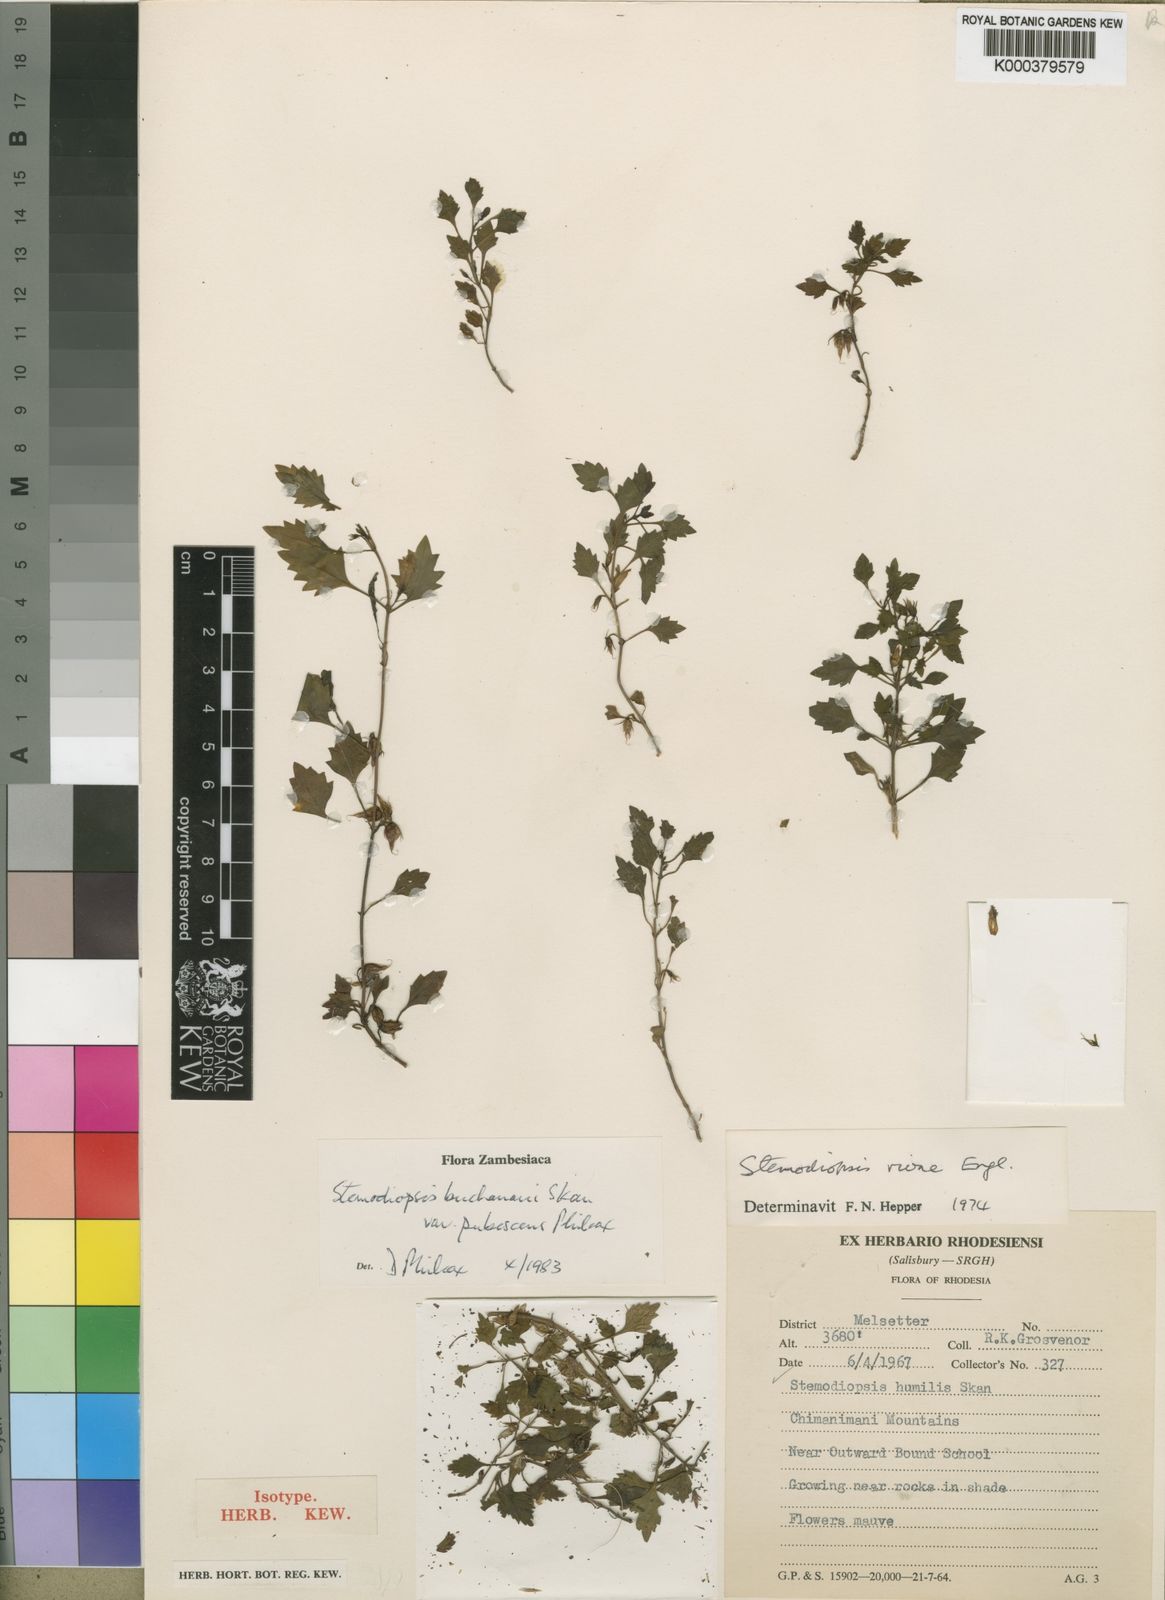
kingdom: Plantae
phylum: Tracheophyta
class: Magnoliopsida
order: Lamiales
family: Linderniaceae
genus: Stemodiopsis
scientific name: Stemodiopsis buchananii
